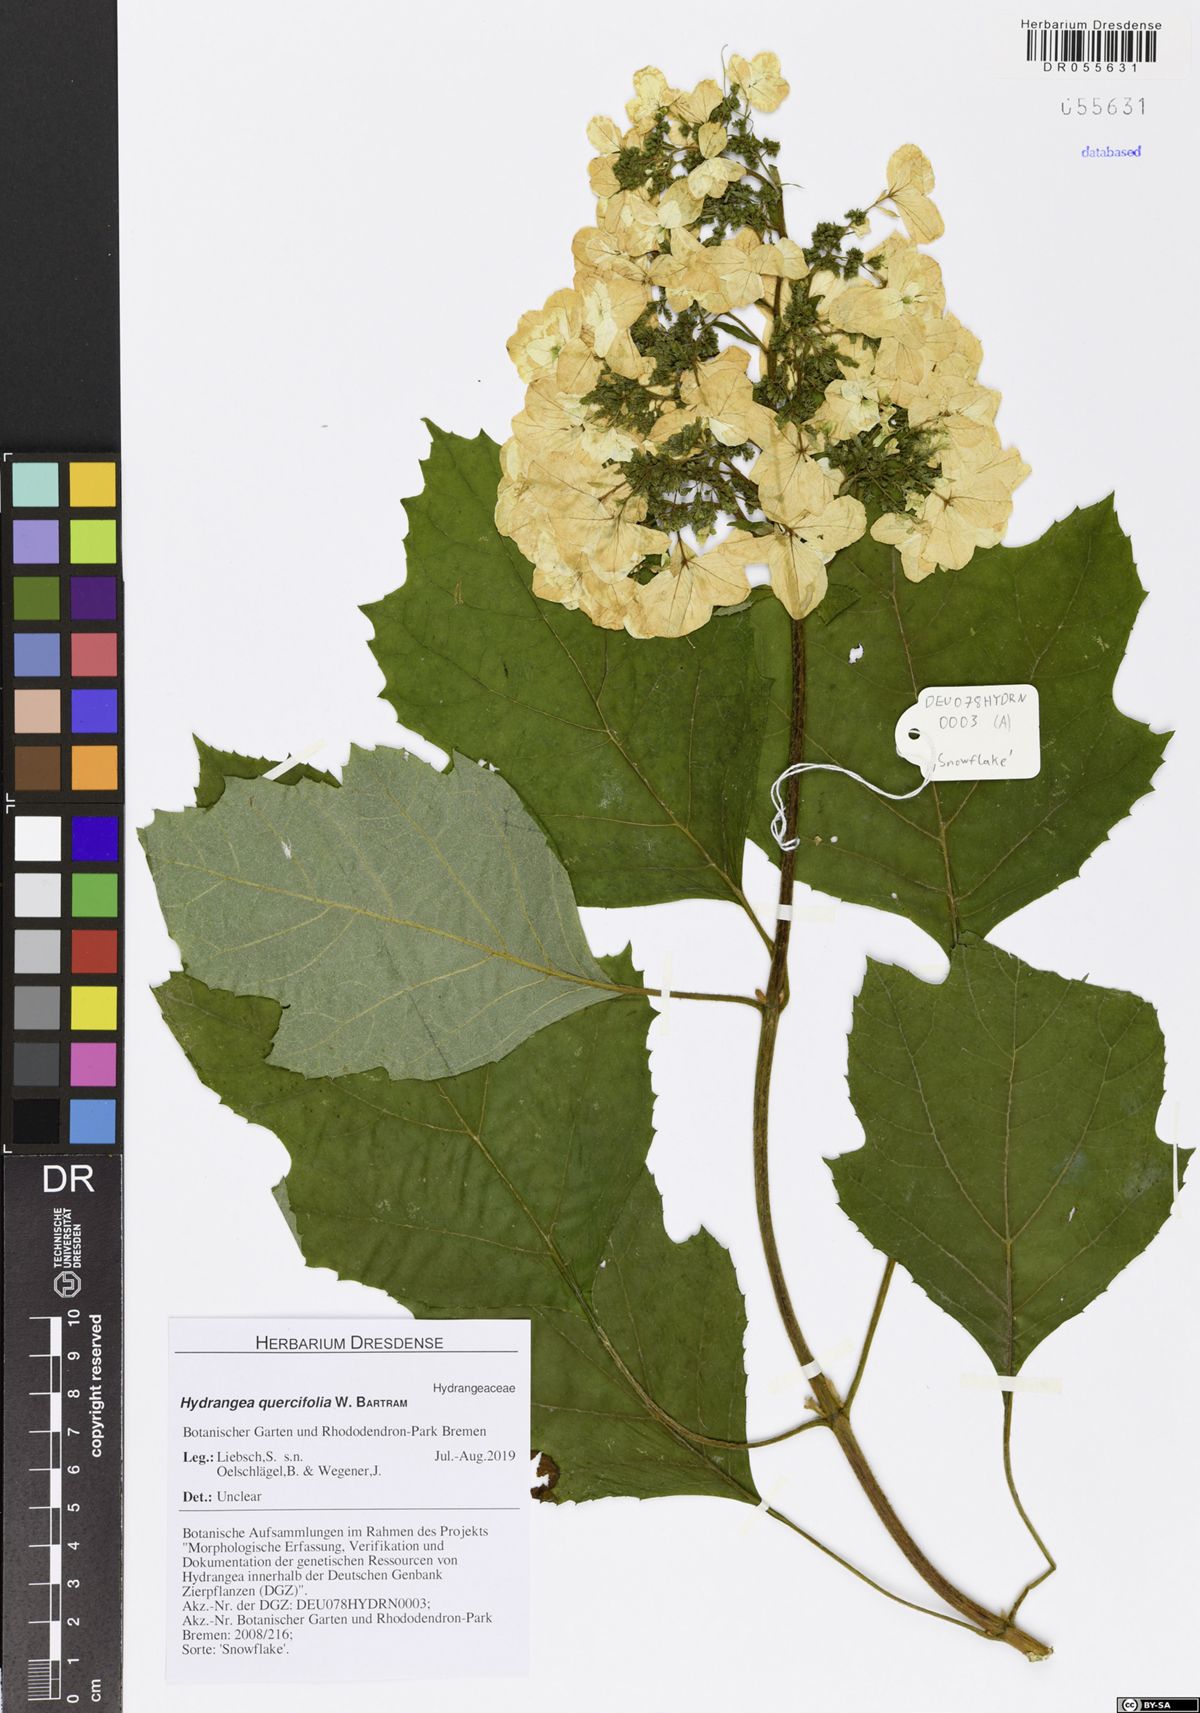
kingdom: Plantae
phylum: Tracheophyta
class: Magnoliopsida
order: Cornales
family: Hydrangeaceae
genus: Hydrangea
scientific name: Hydrangea quercifolia
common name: Oak-leaf hydrangea
